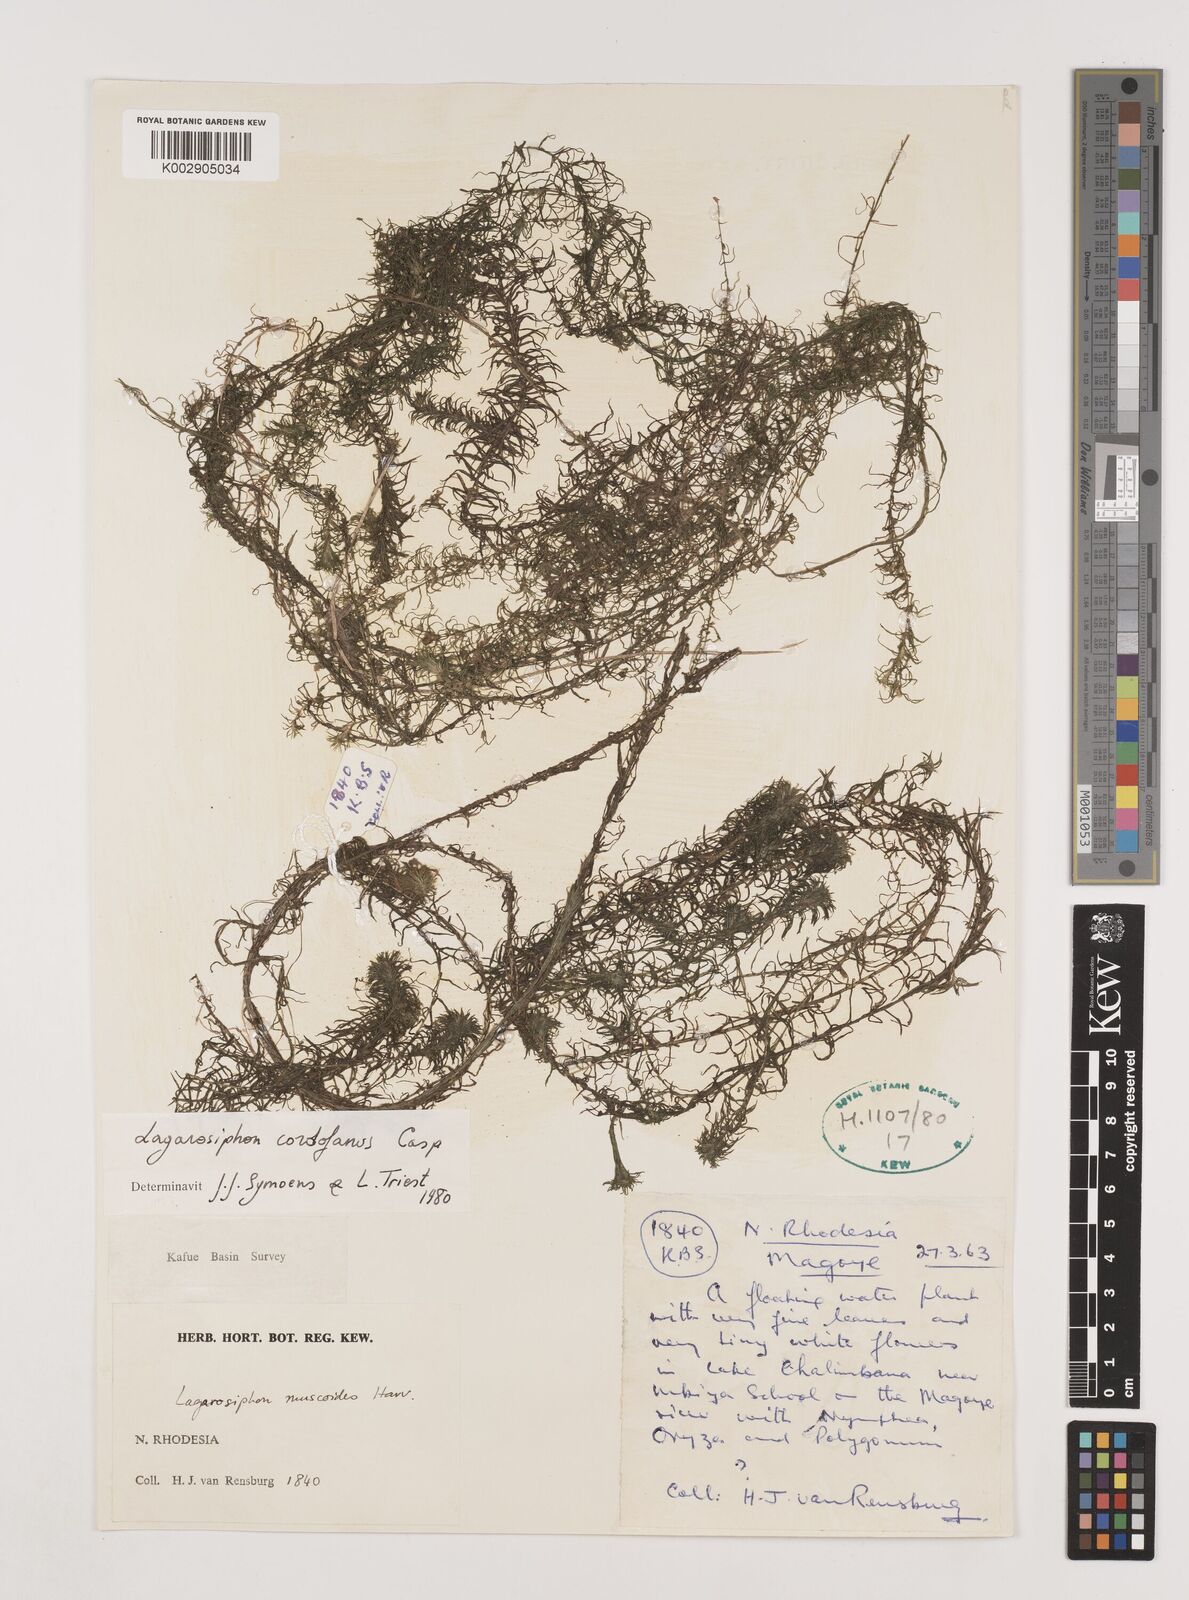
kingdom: Plantae
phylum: Tracheophyta
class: Liliopsida
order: Alismatales
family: Hydrocharitaceae
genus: Lagarosiphon
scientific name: Lagarosiphon cordofanus
